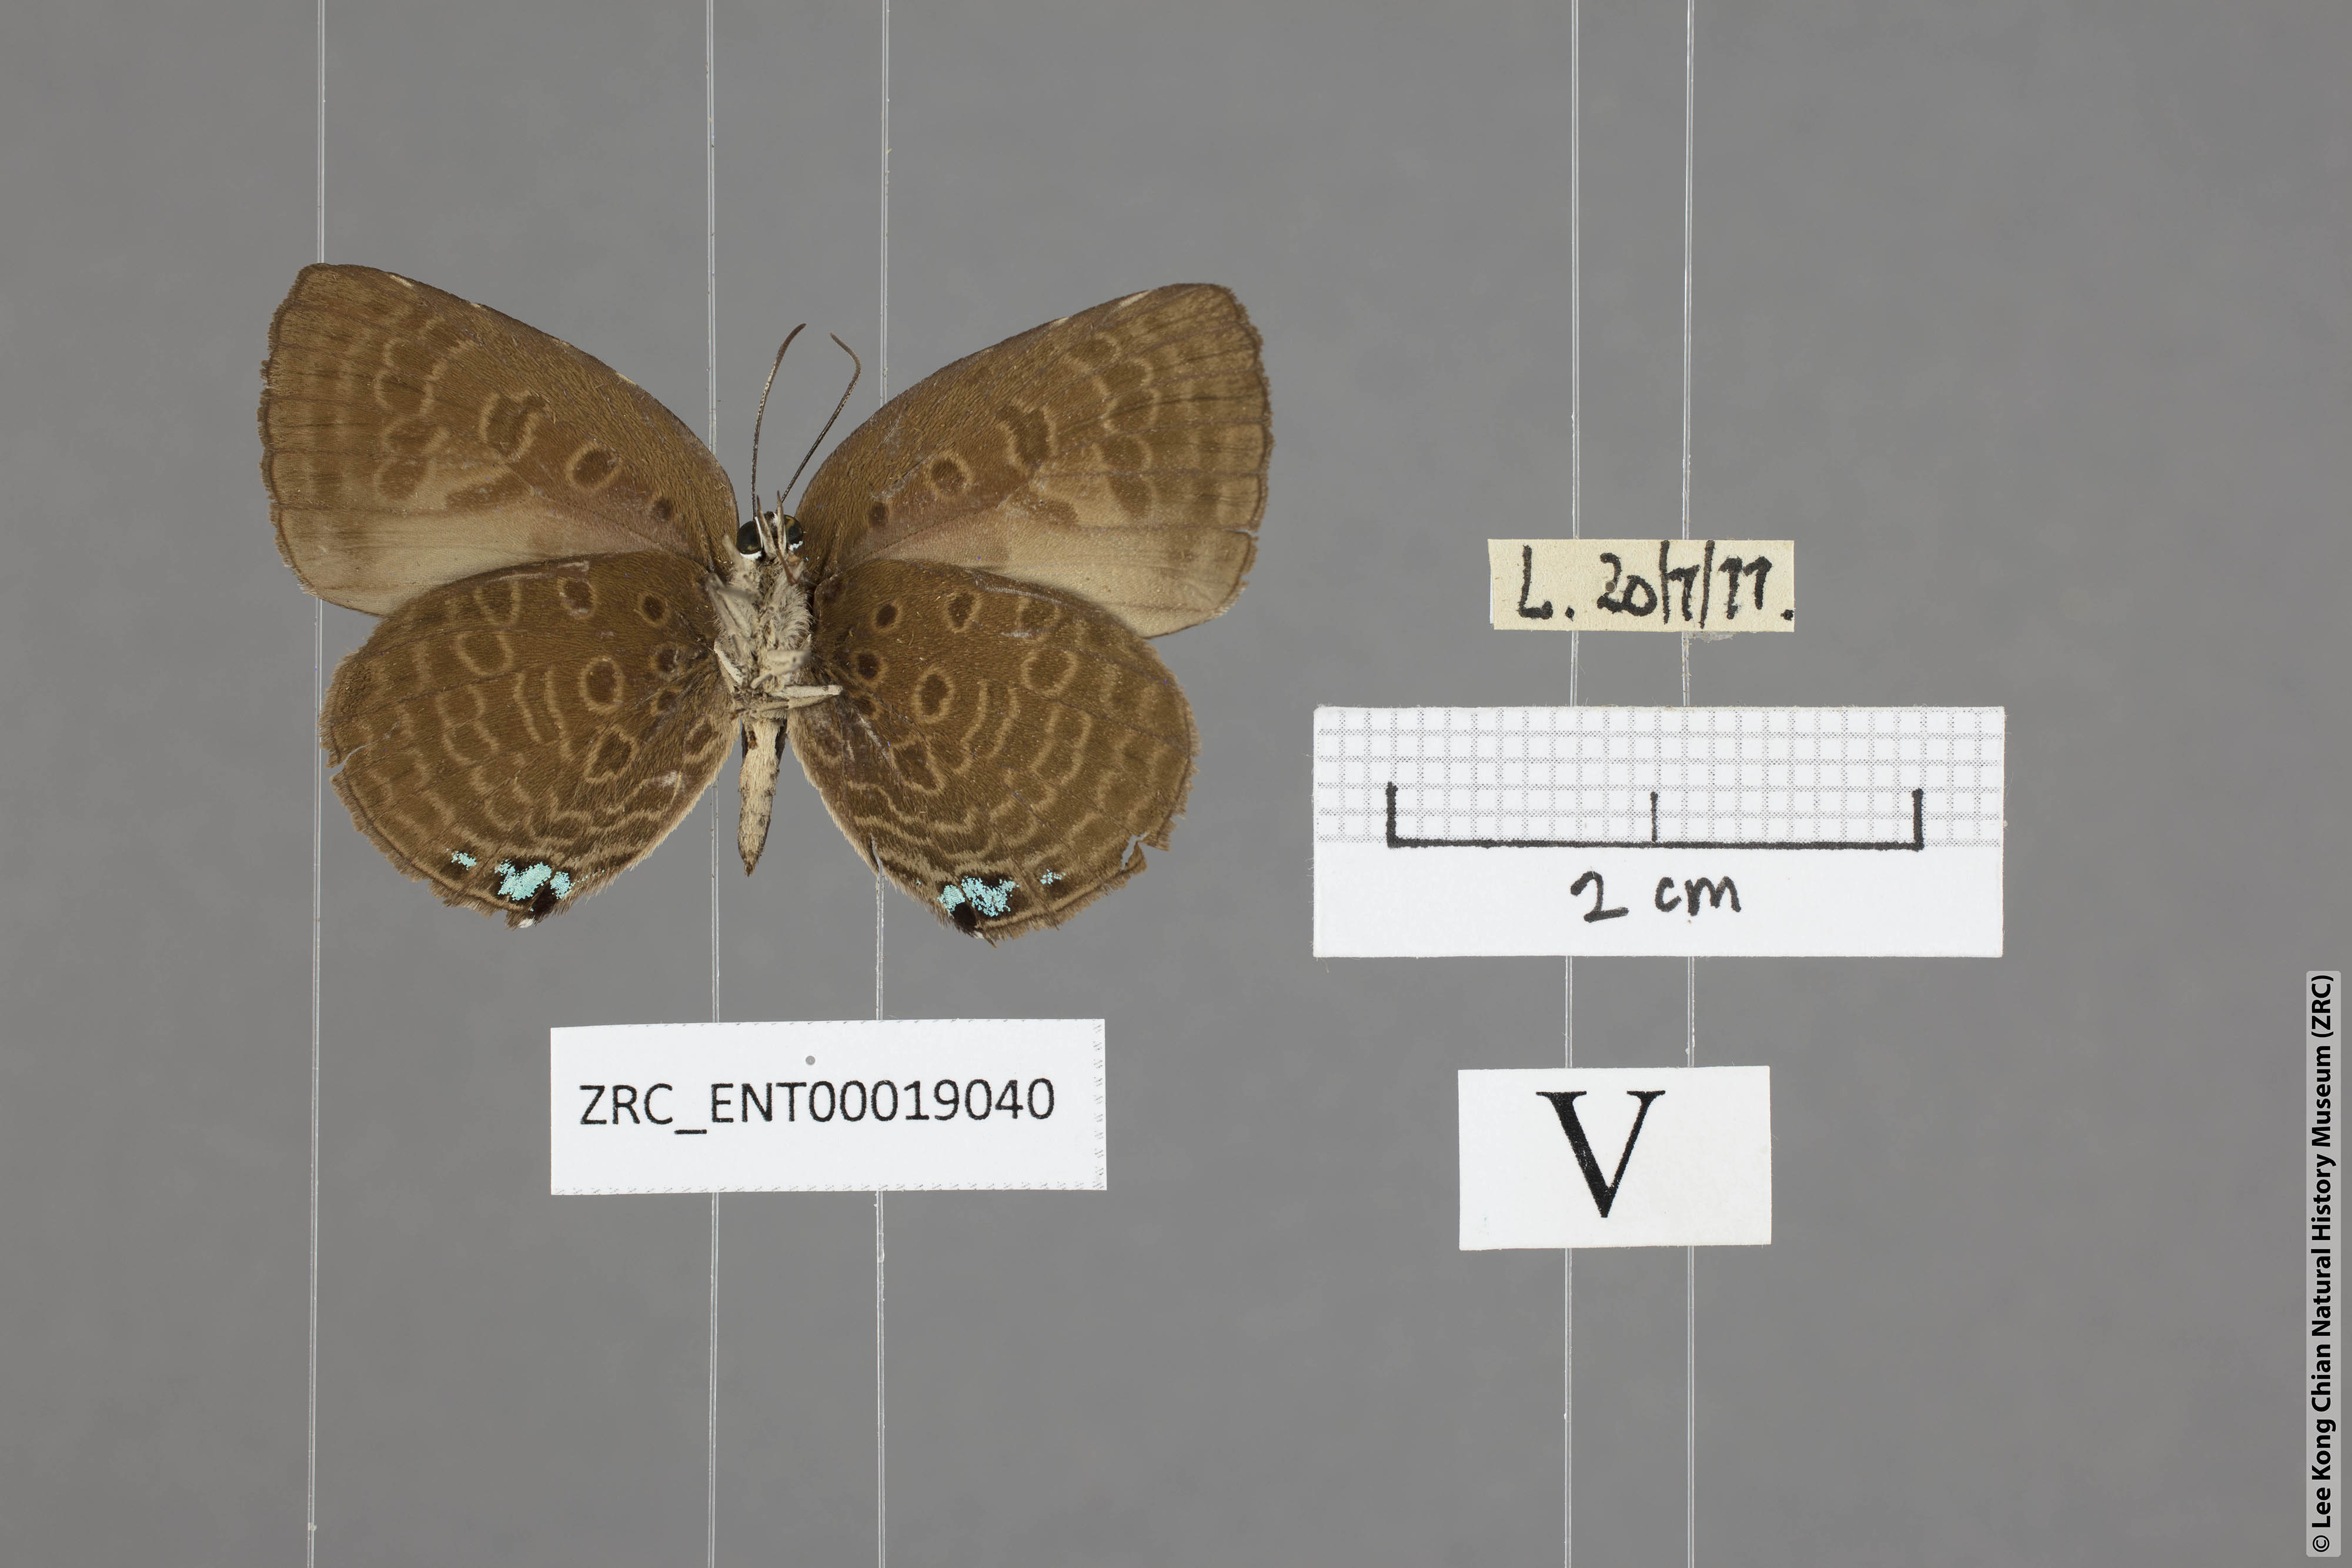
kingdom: Animalia
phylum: Arthropoda
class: Insecta
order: Lepidoptera
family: Lycaenidae
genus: Arhopala
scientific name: Arhopala agesilaus
